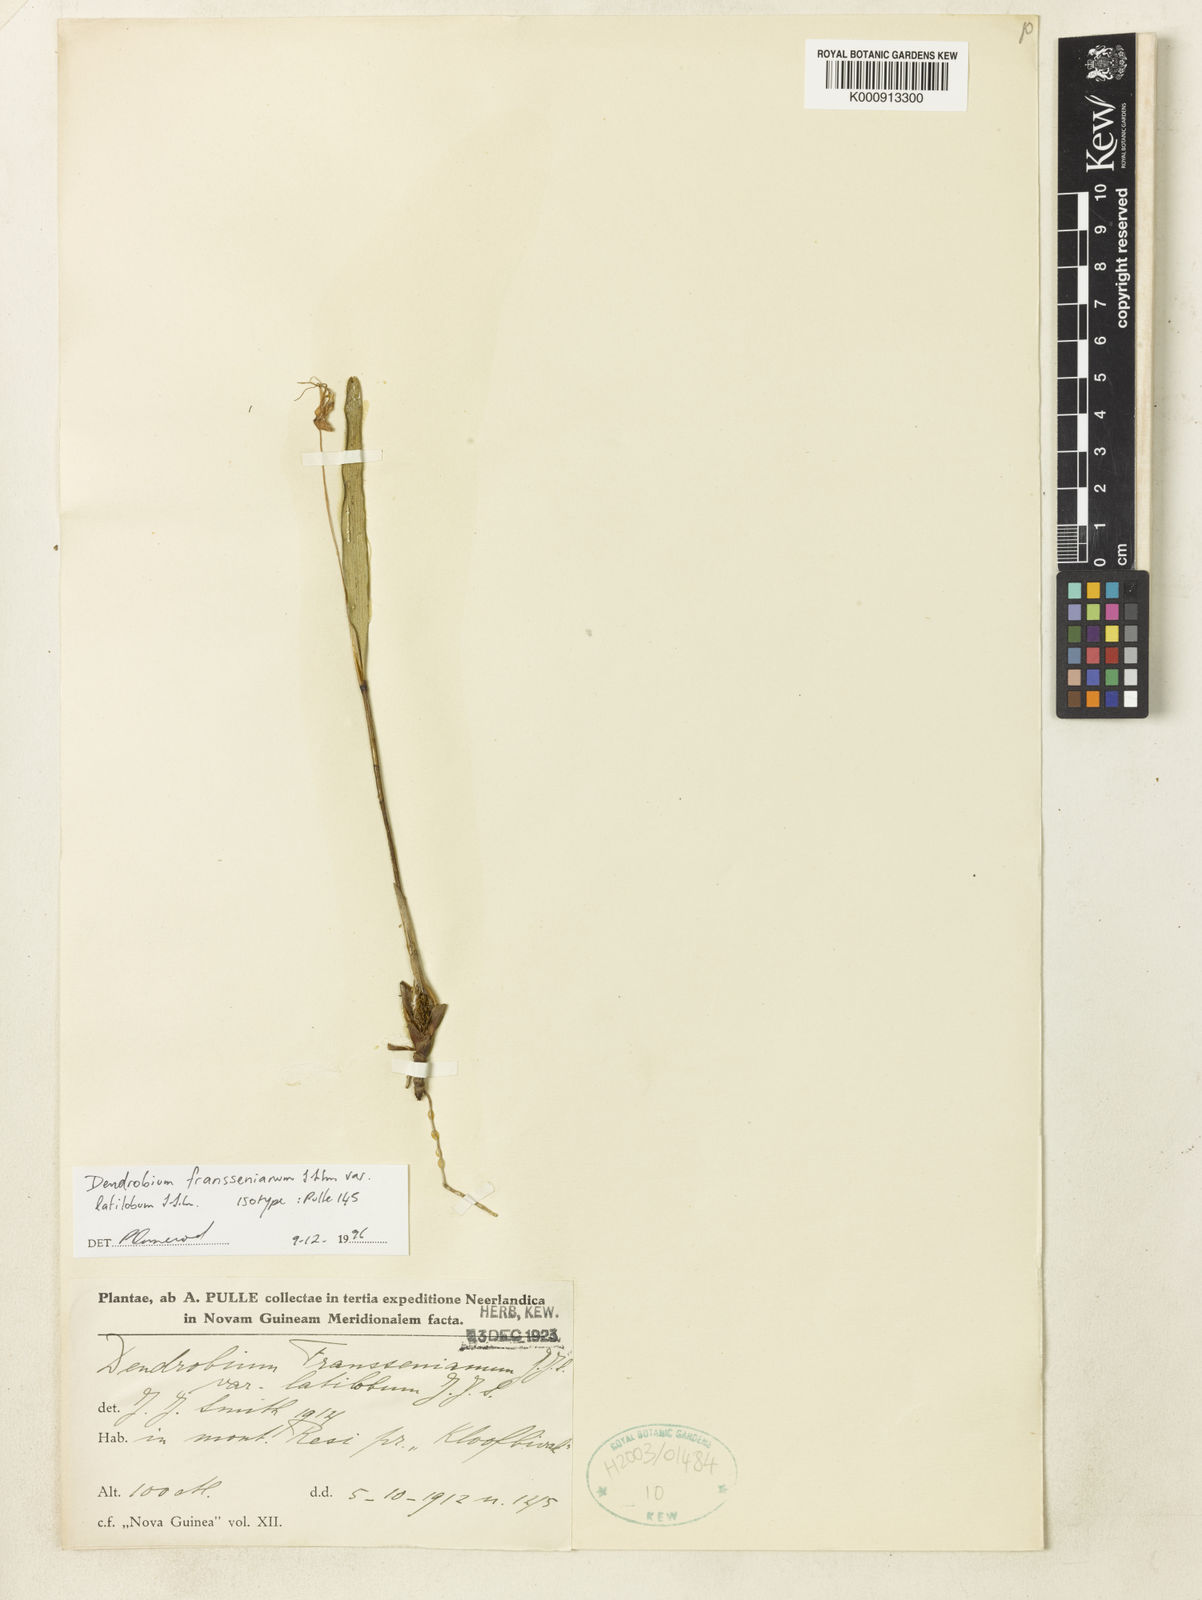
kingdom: Plantae
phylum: Tracheophyta
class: Liliopsida
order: Asparagales
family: Orchidaceae
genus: Dendrobium
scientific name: Dendrobium franssenianum
